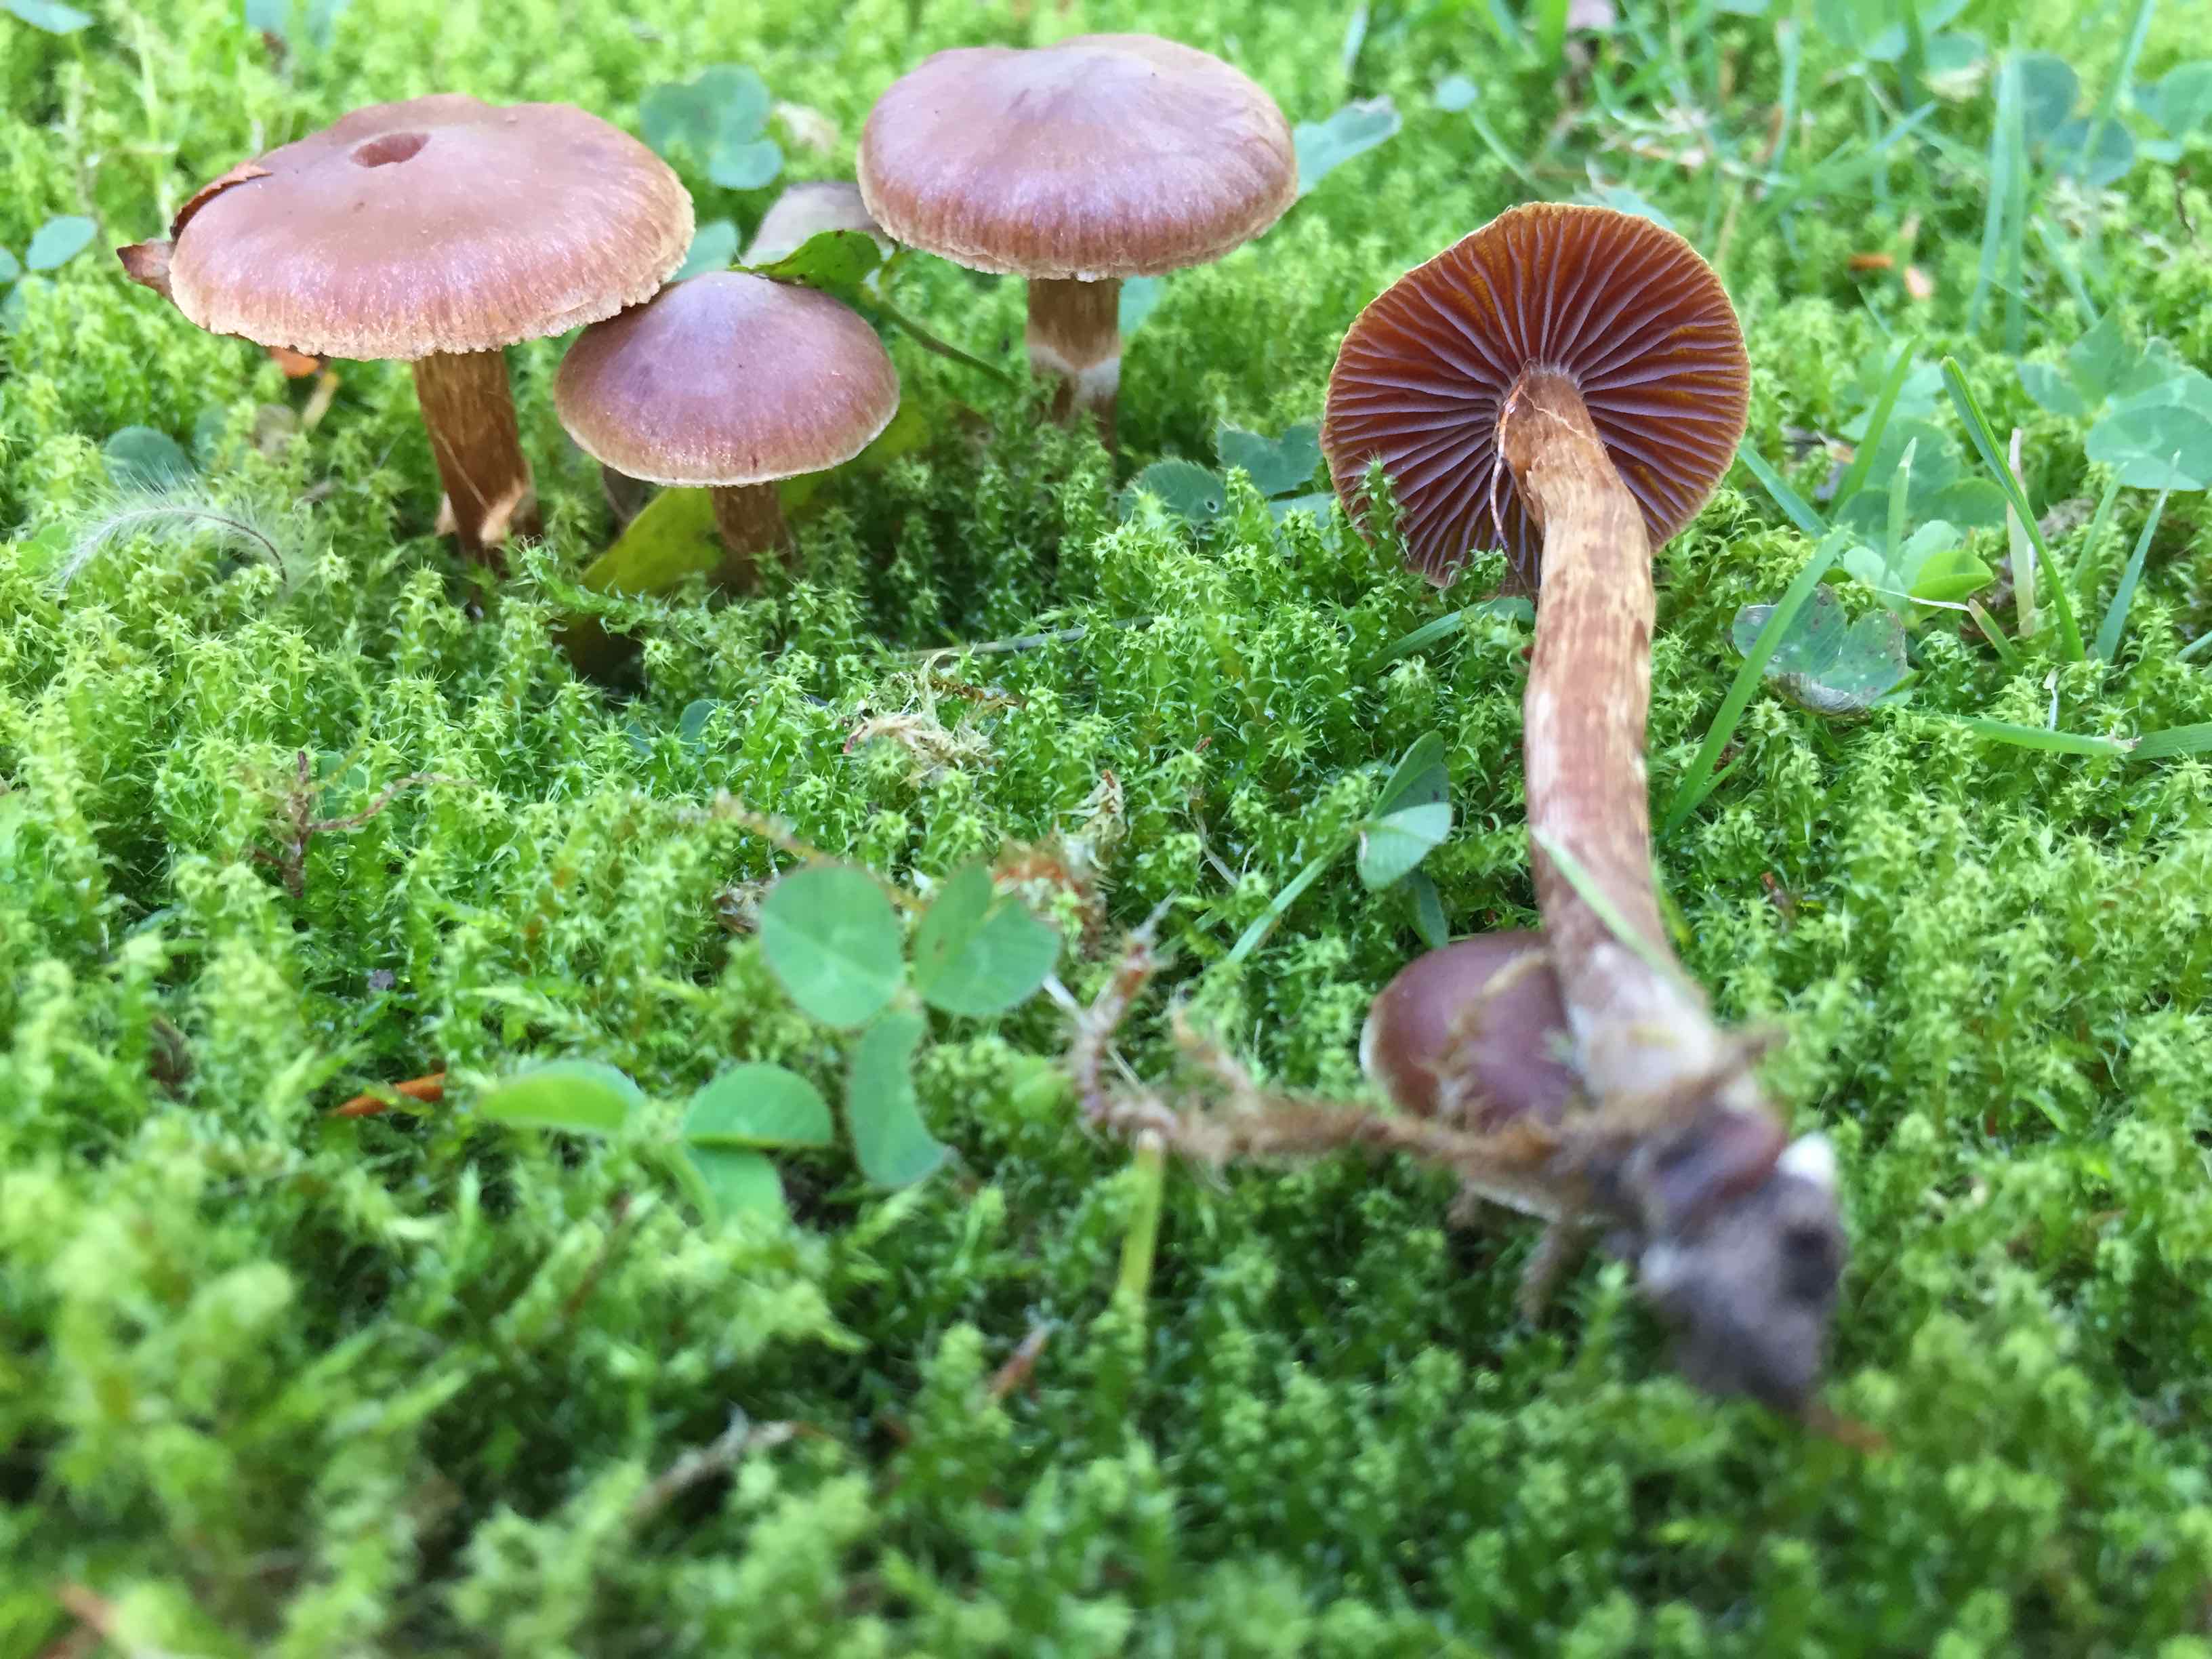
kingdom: Fungi
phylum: Basidiomycota
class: Agaricomycetes
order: Agaricales
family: Cortinariaceae
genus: Cortinarius
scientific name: Cortinarius
